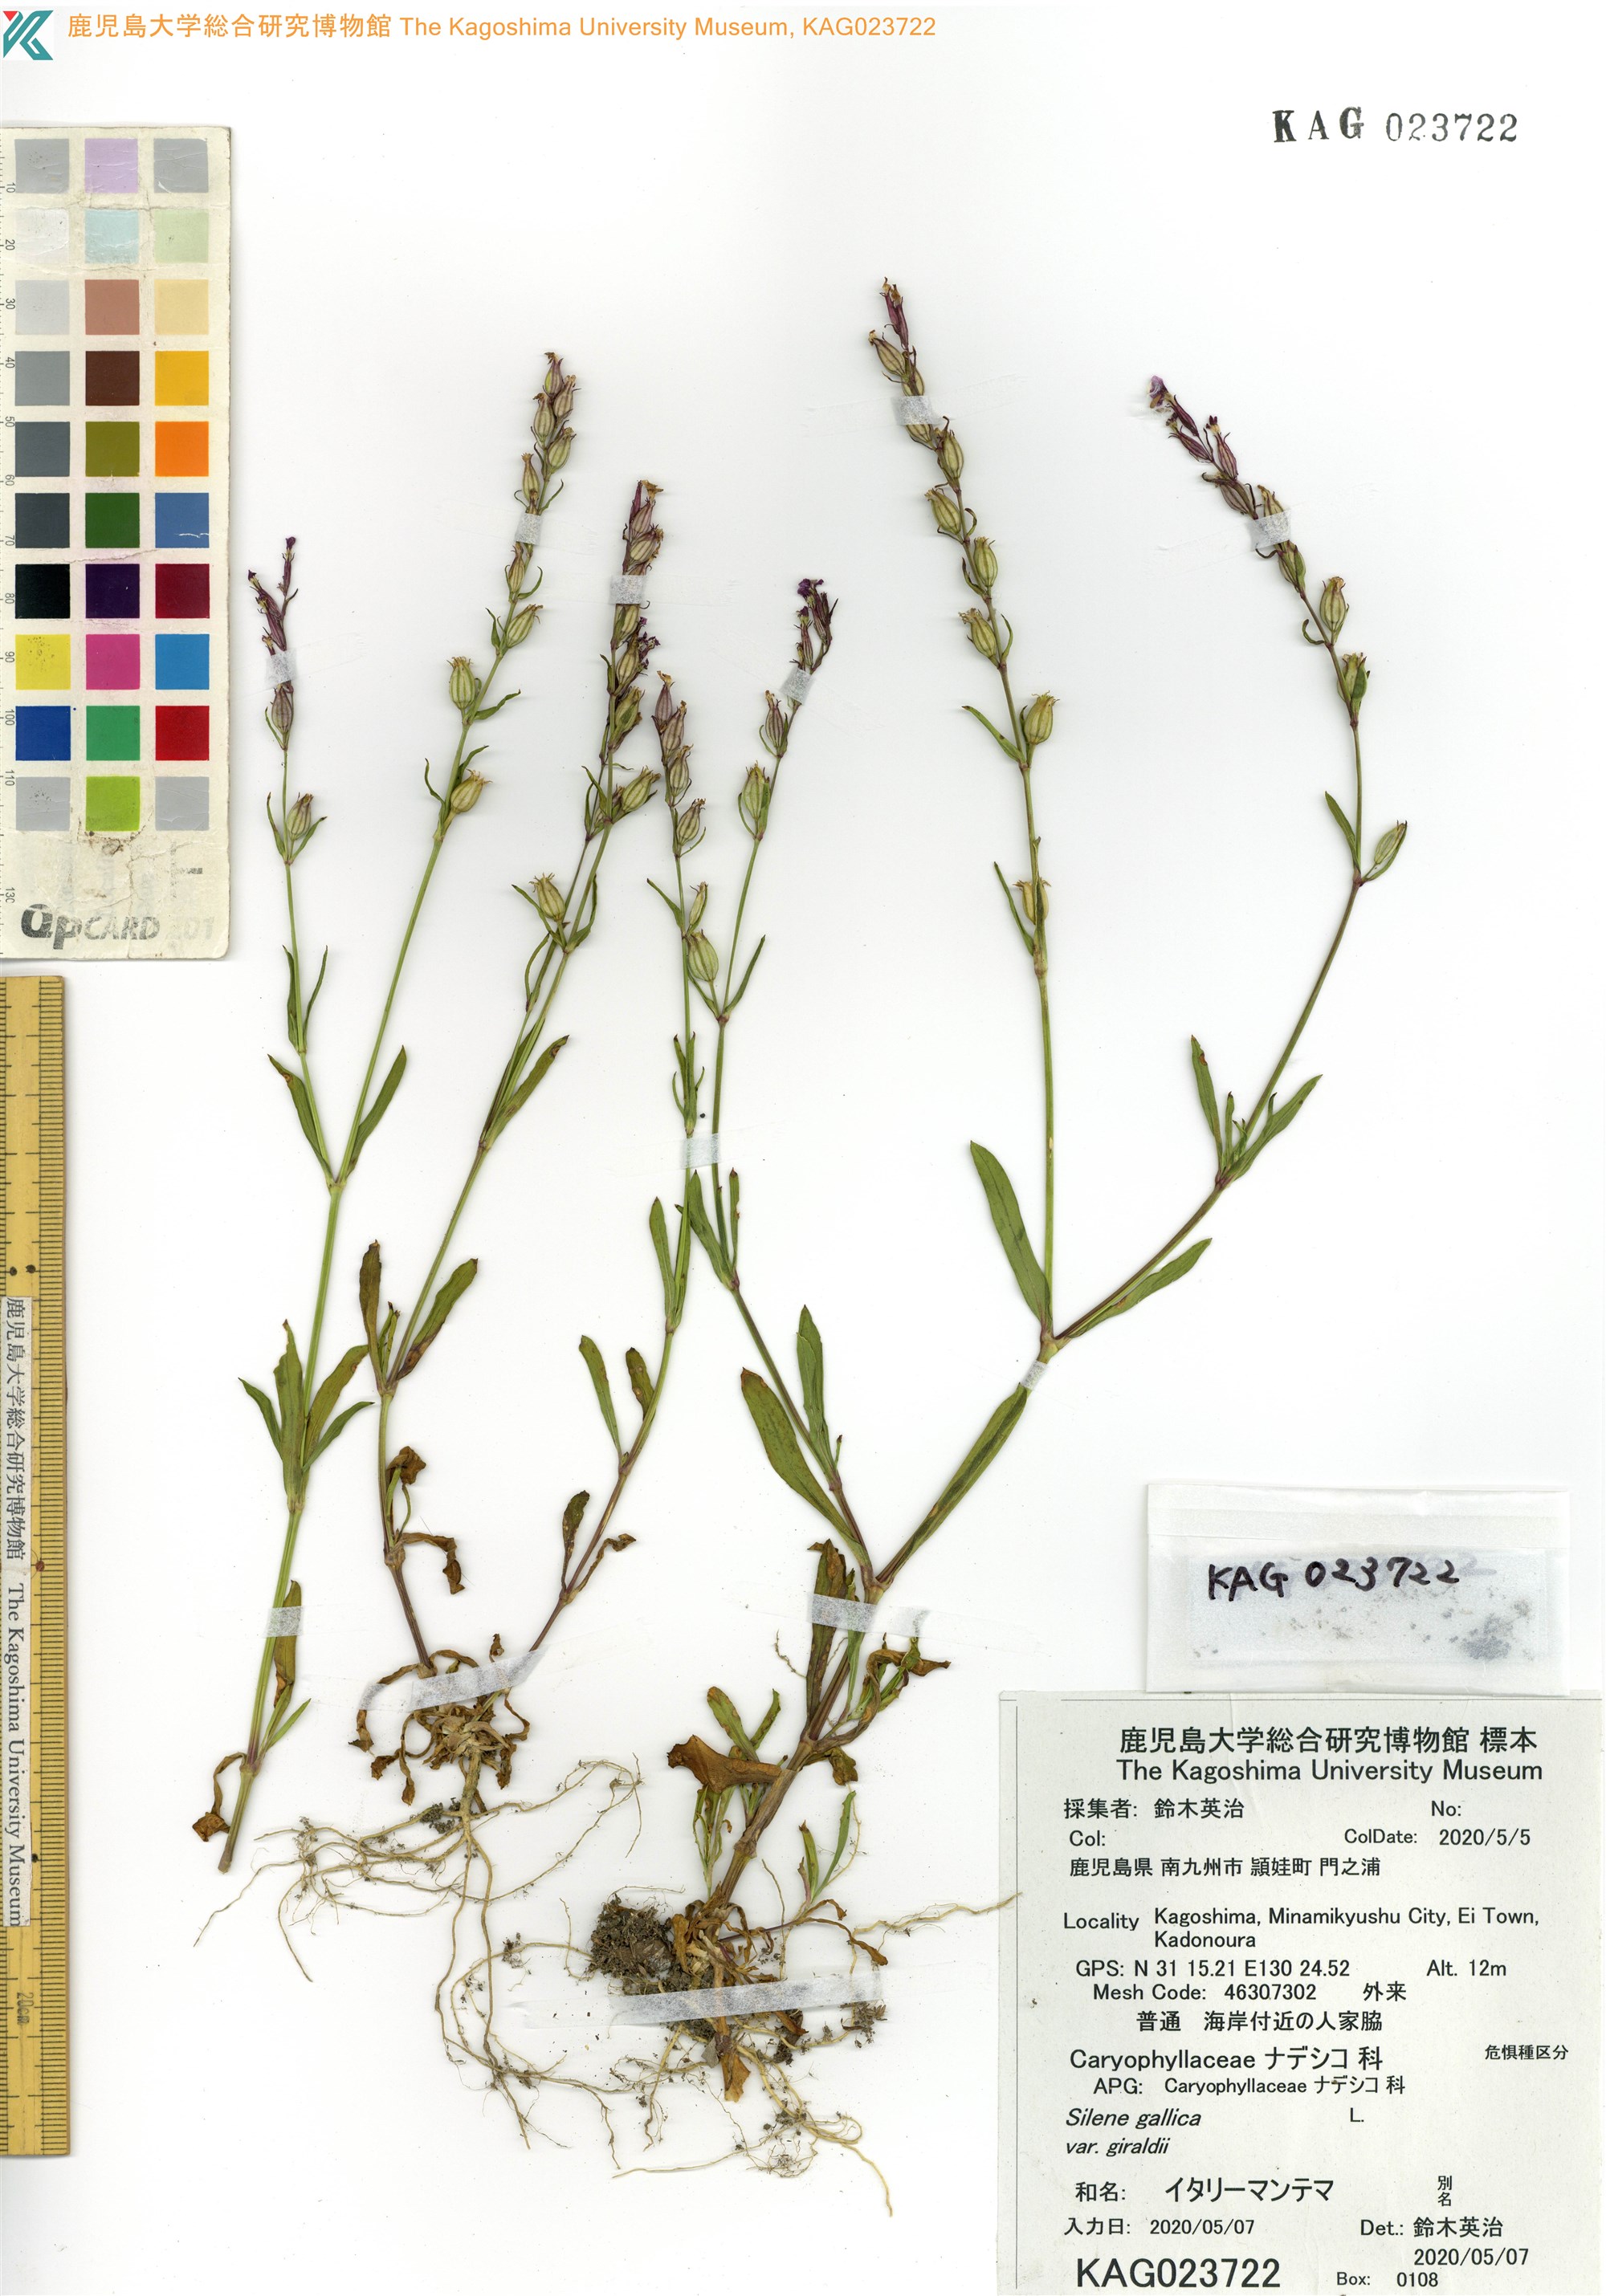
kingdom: Plantae
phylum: Tracheophyta
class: Magnoliopsida
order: Caryophyllales
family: Caryophyllaceae
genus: Silene
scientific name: Silene gallica
